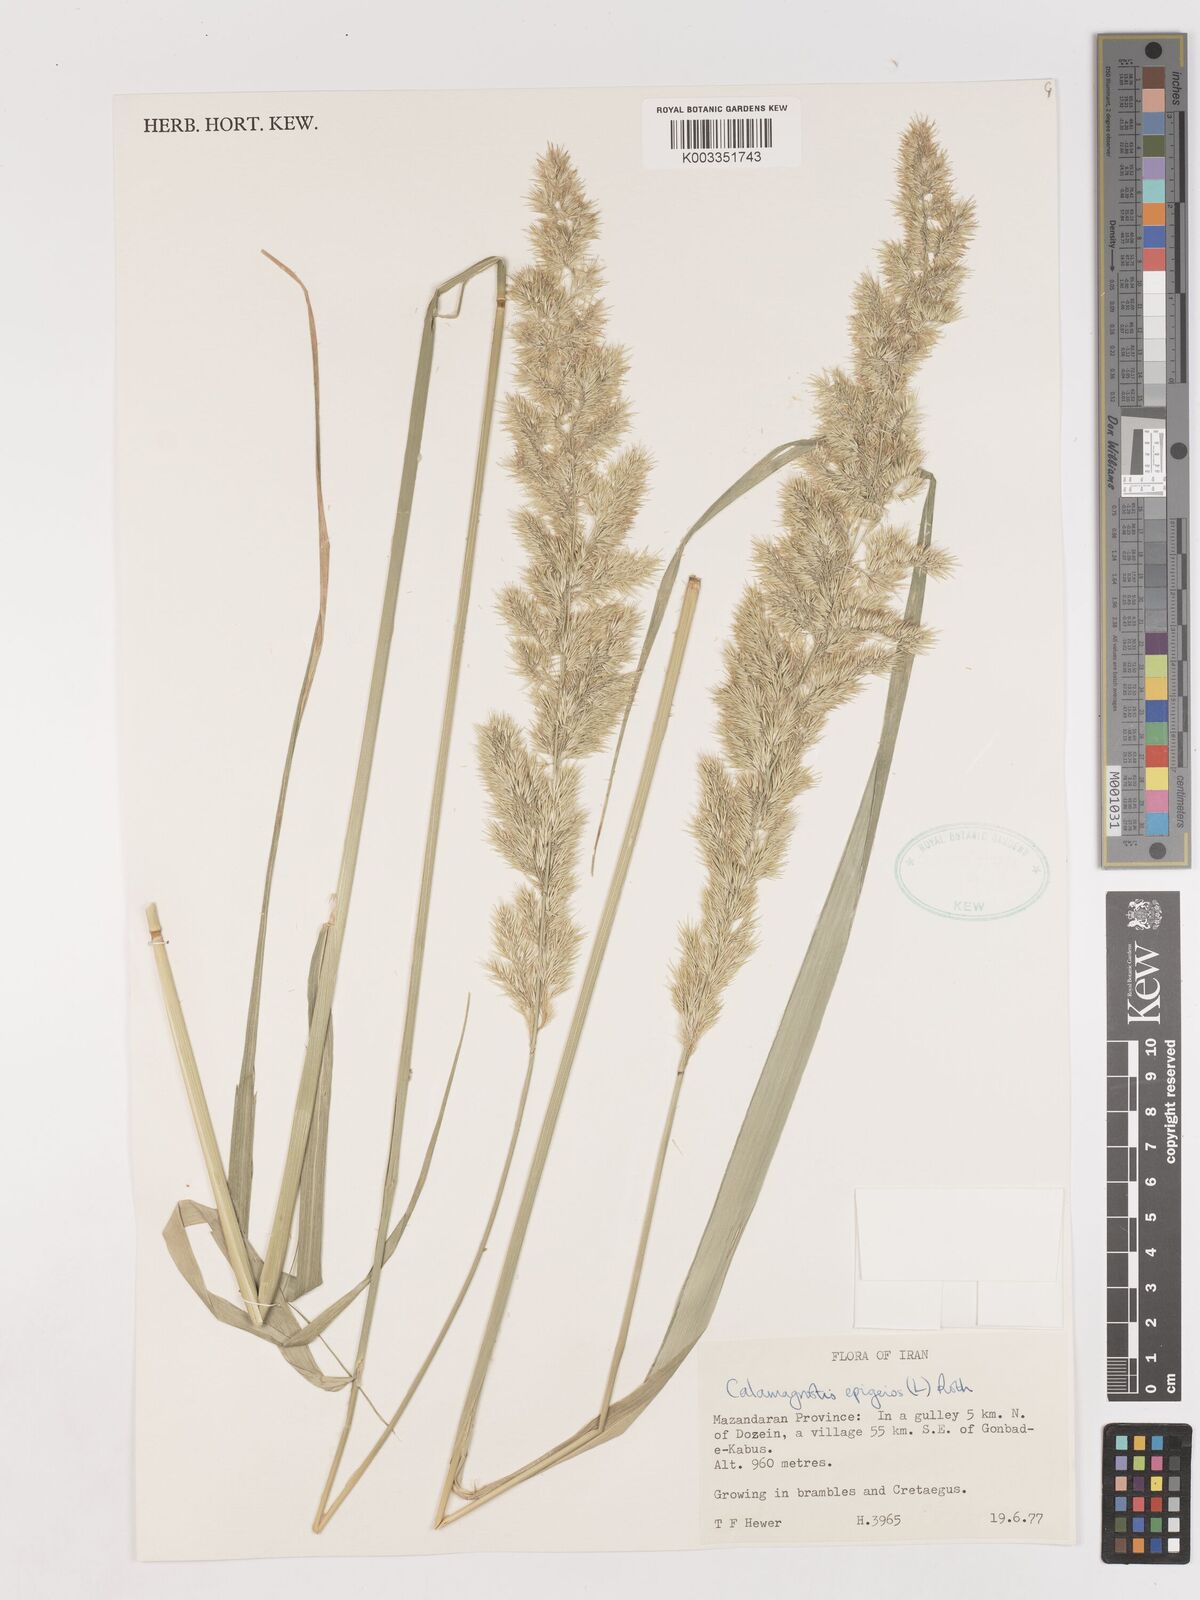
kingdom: Plantae
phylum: Tracheophyta
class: Liliopsida
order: Poales
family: Poaceae
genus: Calamagrostis
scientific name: Calamagrostis
